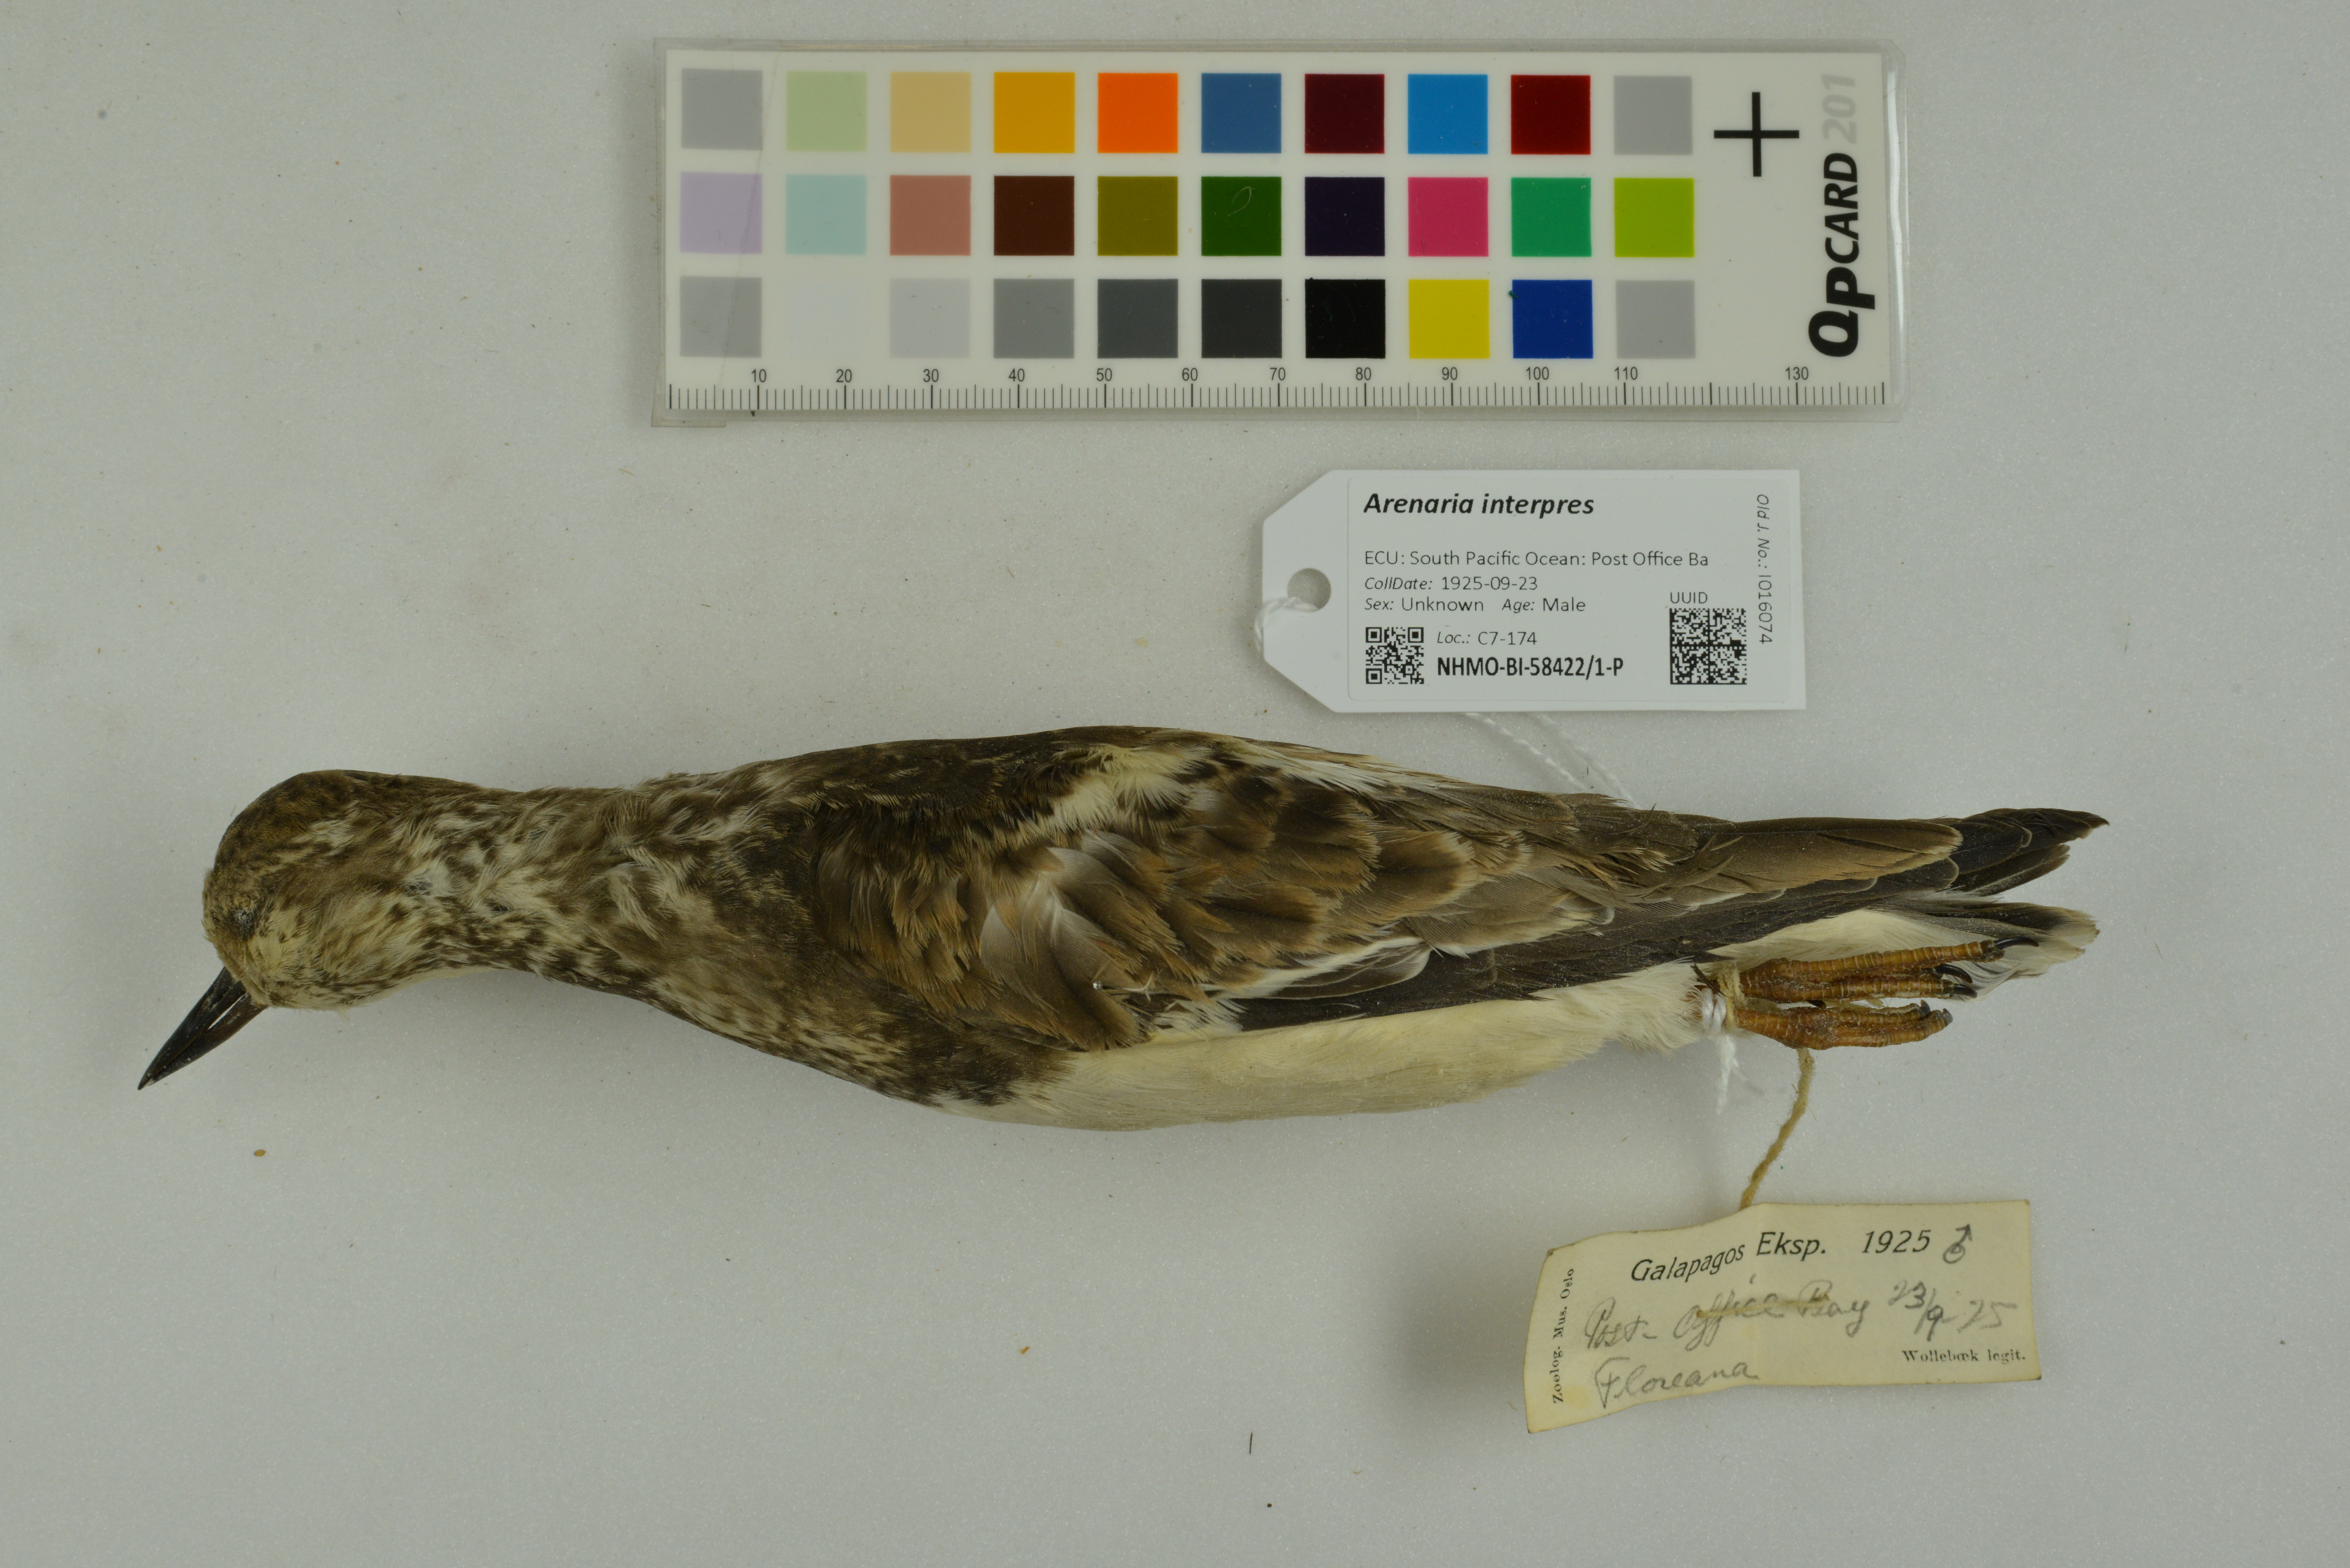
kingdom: Animalia
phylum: Chordata
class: Aves
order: Charadriiformes
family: Scolopacidae
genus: Arenaria
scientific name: Arenaria interpres
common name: Ruddy turnstone
